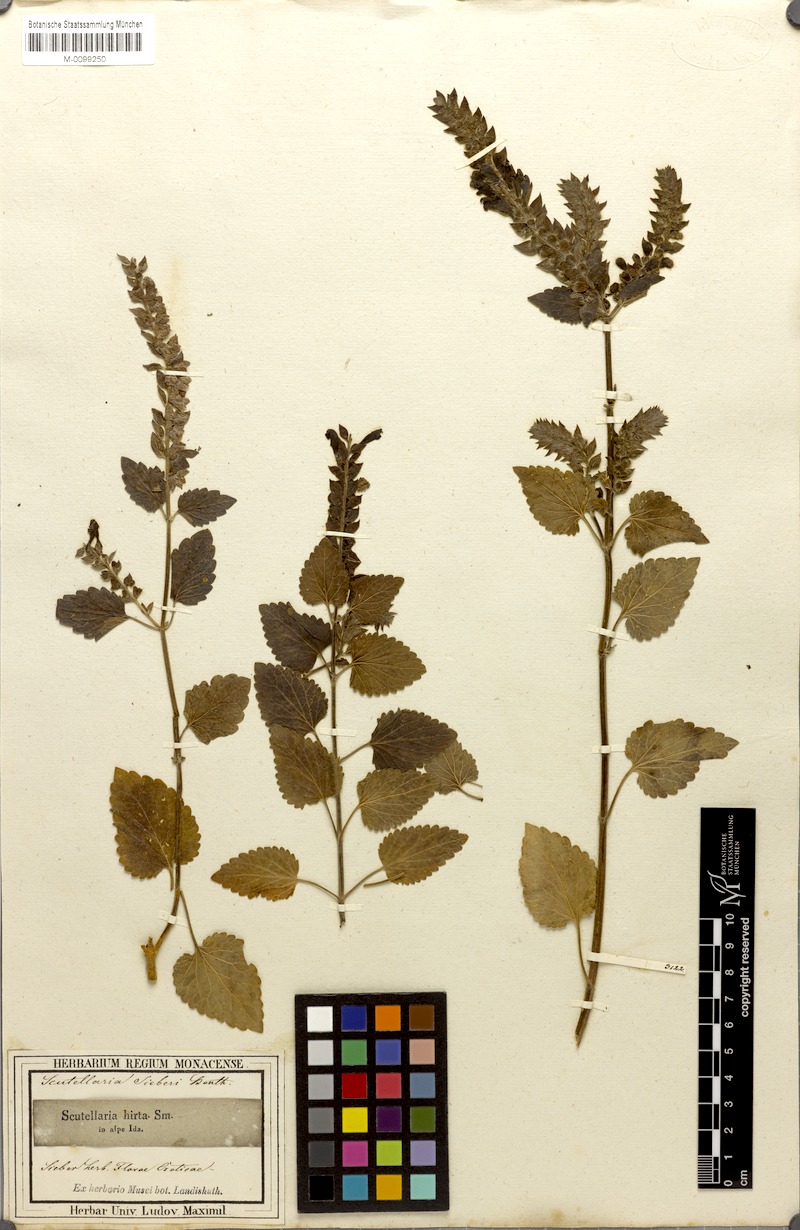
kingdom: Plantae
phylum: Tracheophyta
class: Magnoliopsida
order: Lamiales
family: Lamiaceae
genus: Scutellaria
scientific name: Scutellaria sieberi
